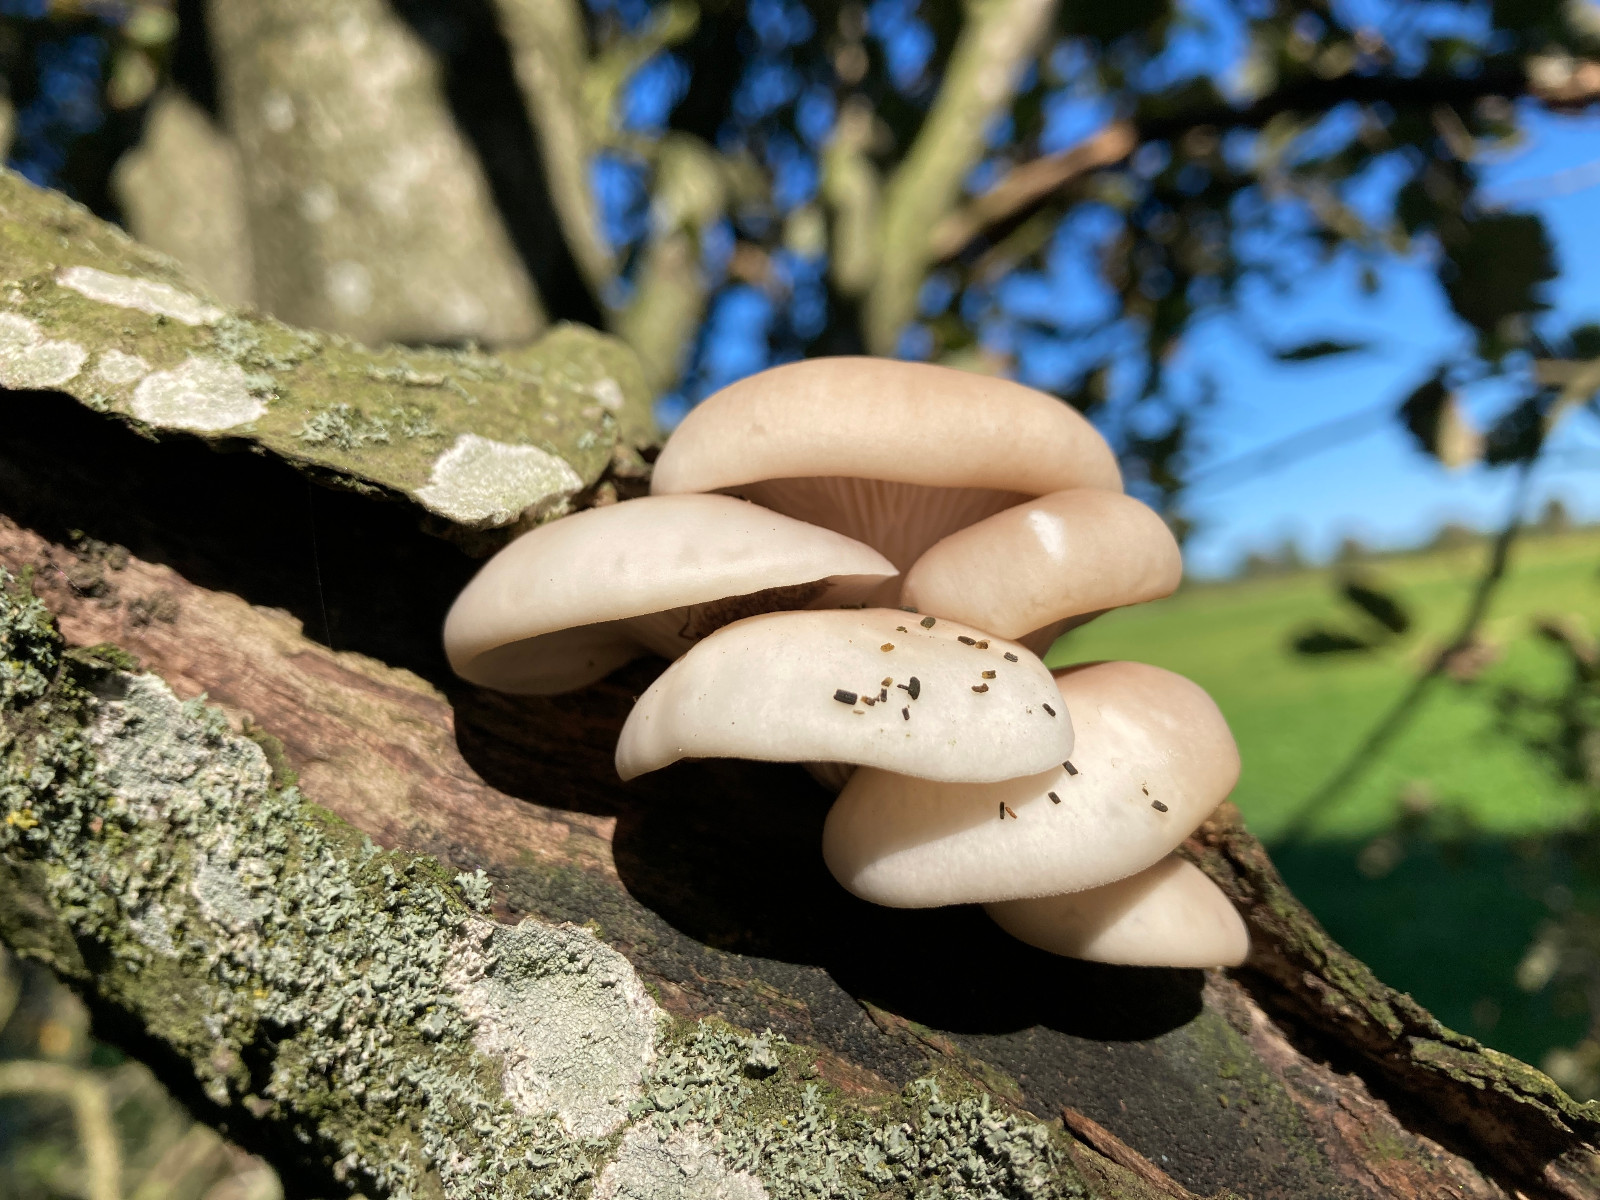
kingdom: Fungi
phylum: Basidiomycota
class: Agaricomycetes
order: Agaricales
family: Pleurotaceae
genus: Pleurotus
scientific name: Pleurotus ostreatus
